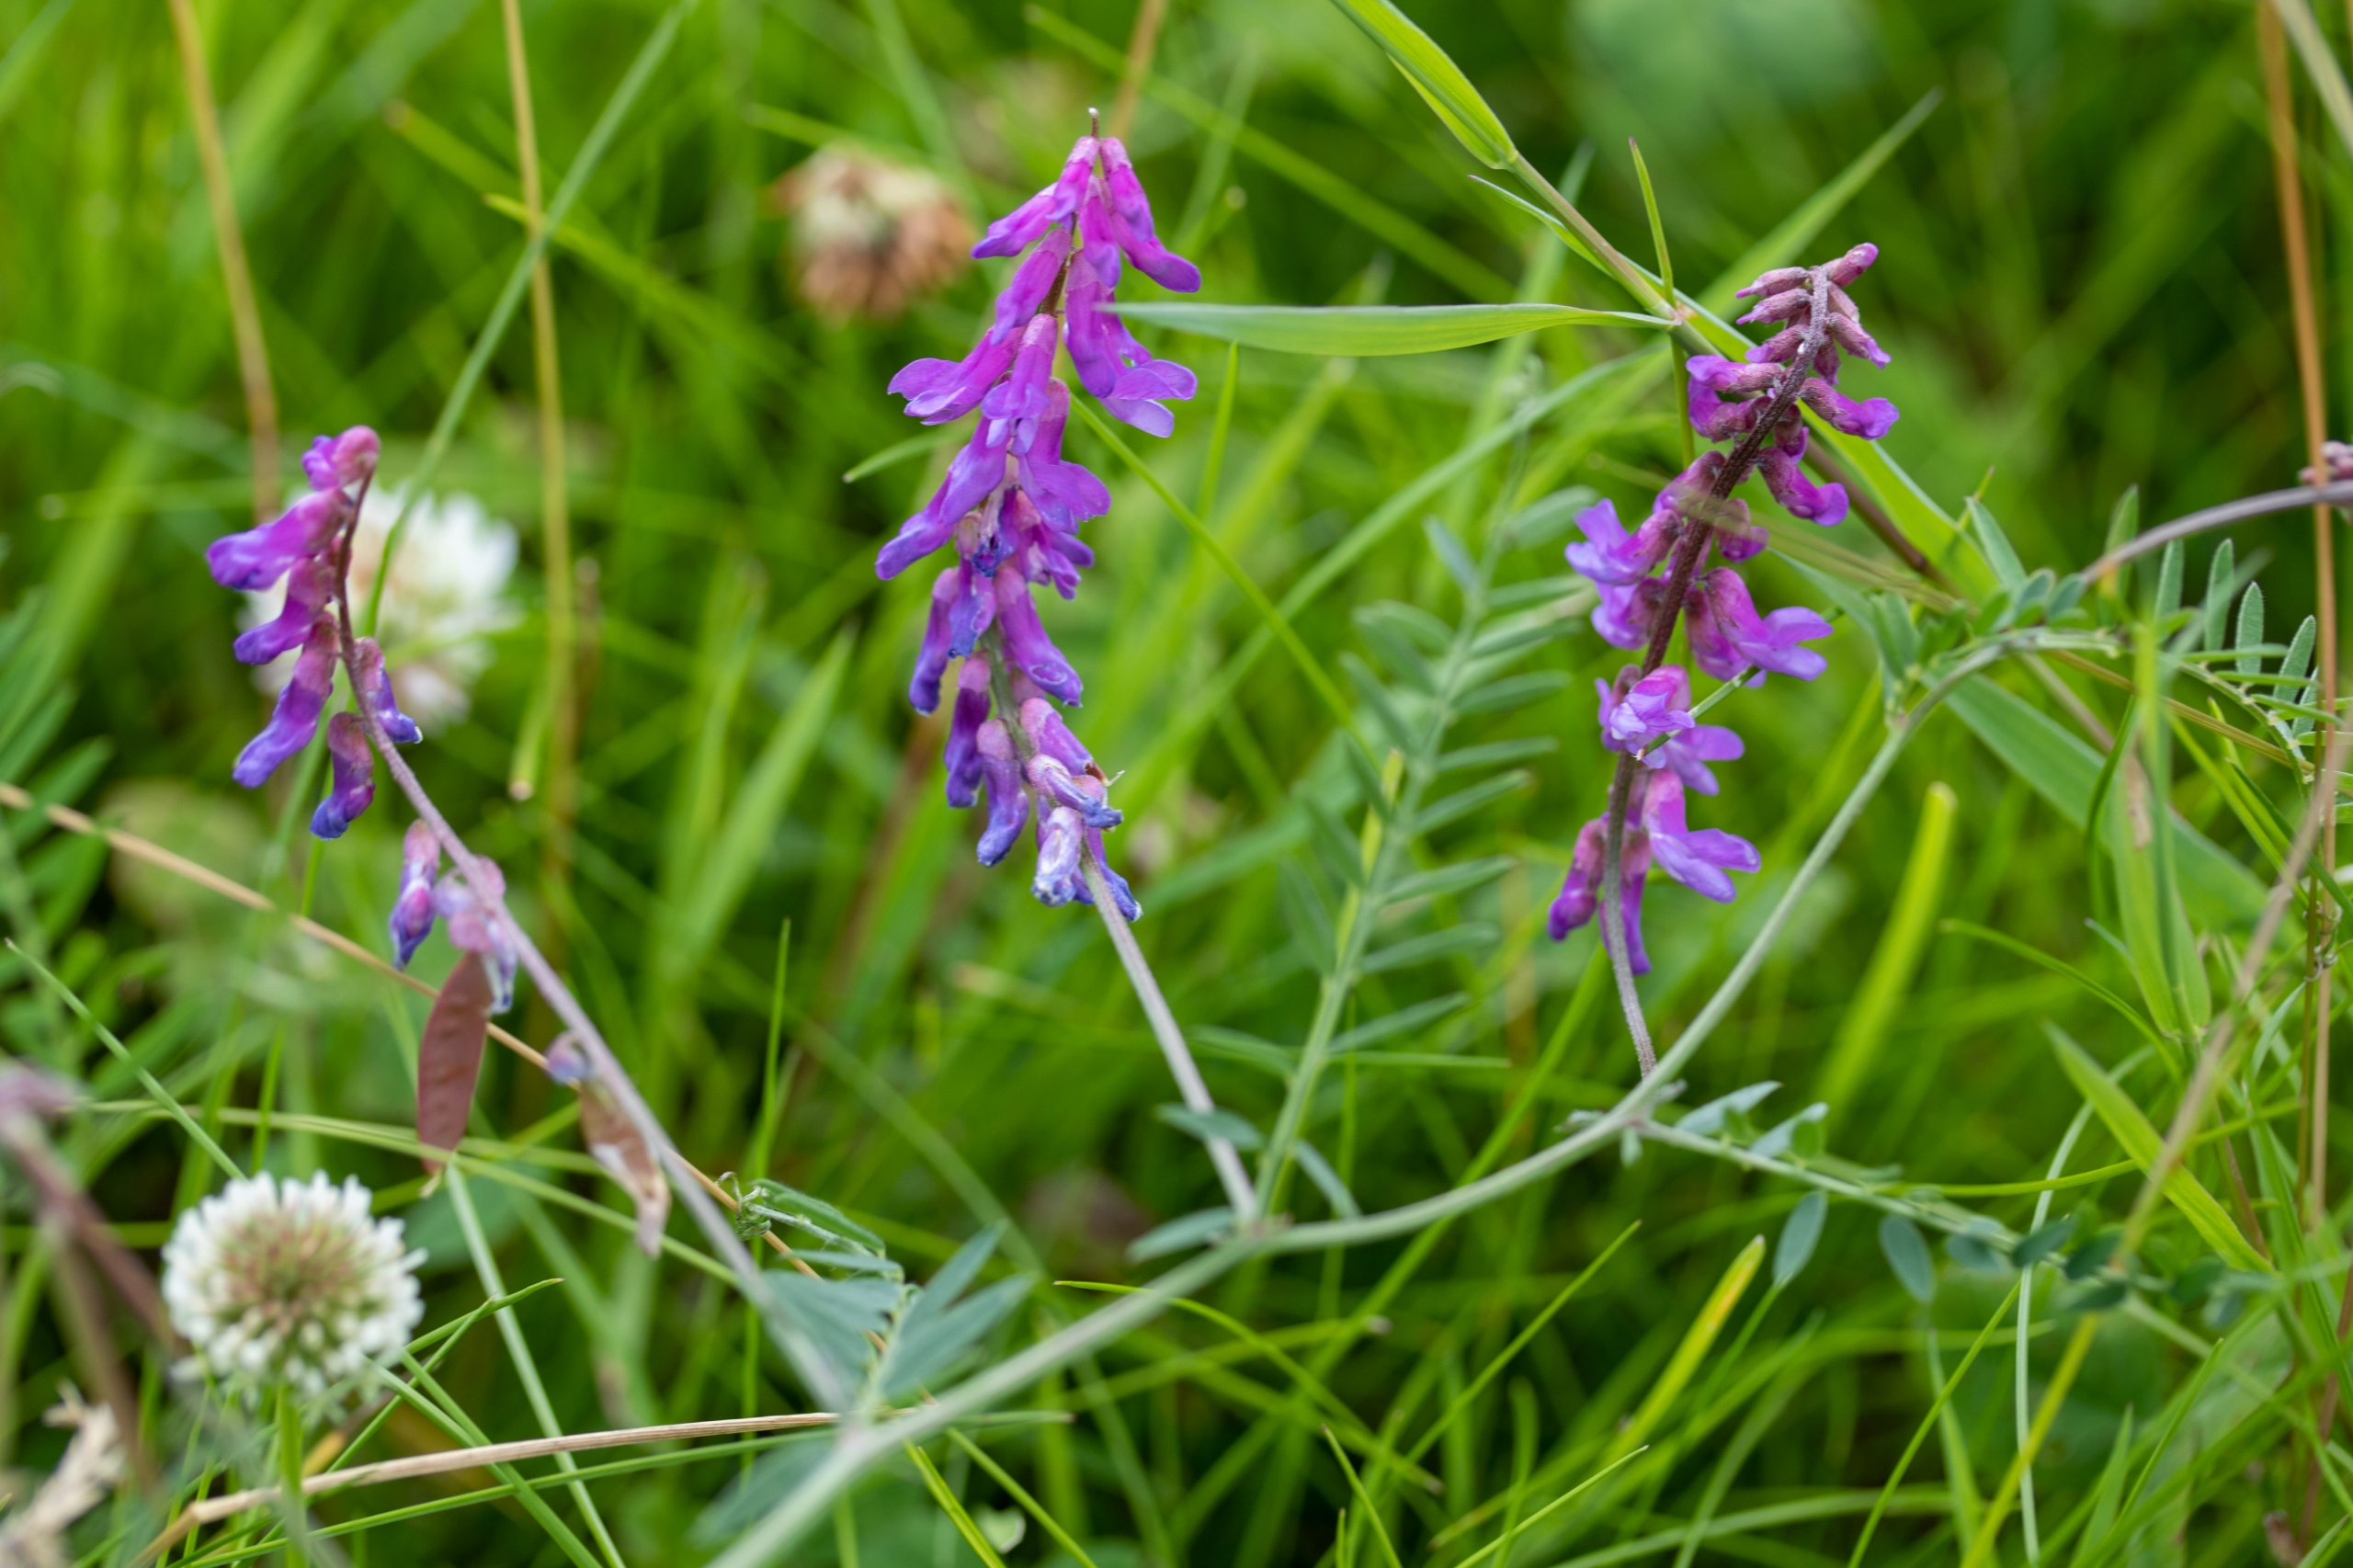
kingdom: Plantae
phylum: Tracheophyta
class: Magnoliopsida
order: Fabales
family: Fabaceae
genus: Vicia
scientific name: Vicia cracca
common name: Muse-vikke
